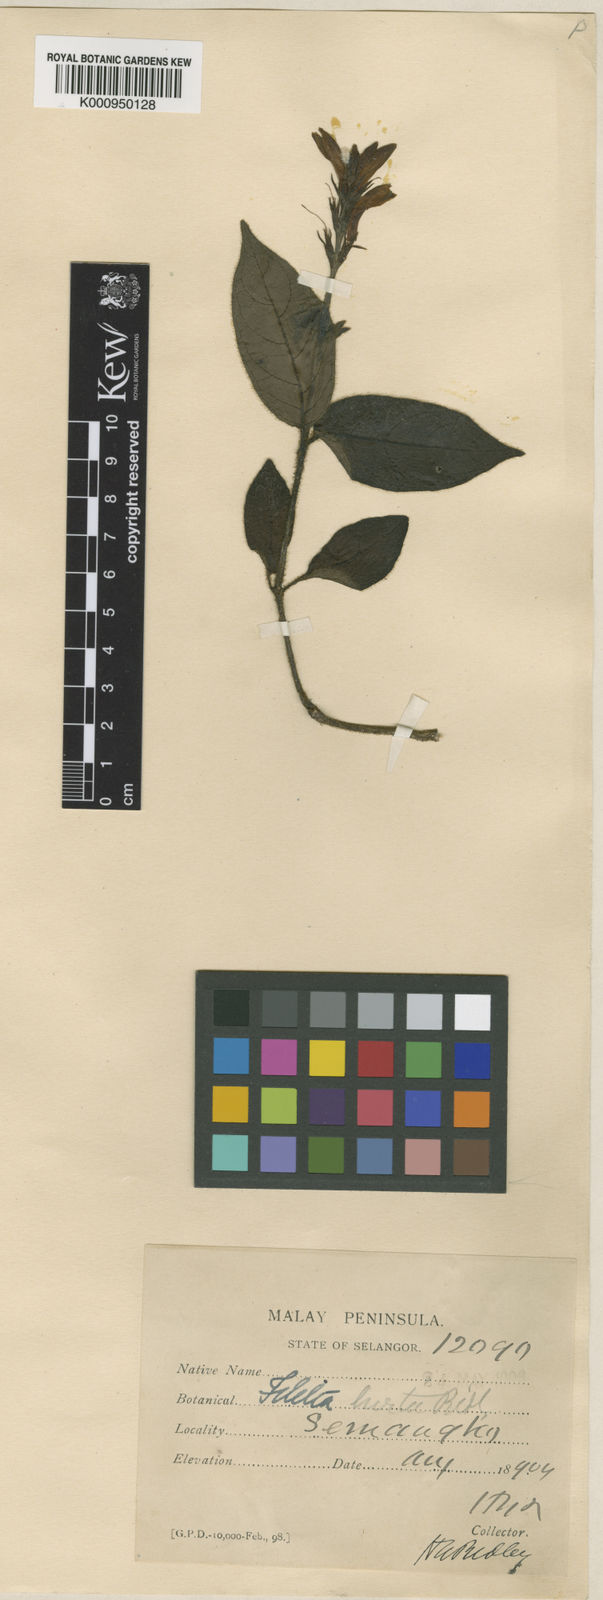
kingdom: Plantae
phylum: Tracheophyta
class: Magnoliopsida
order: Lamiales
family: Acanthaceae
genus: Filetia
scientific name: Filetia hirta
